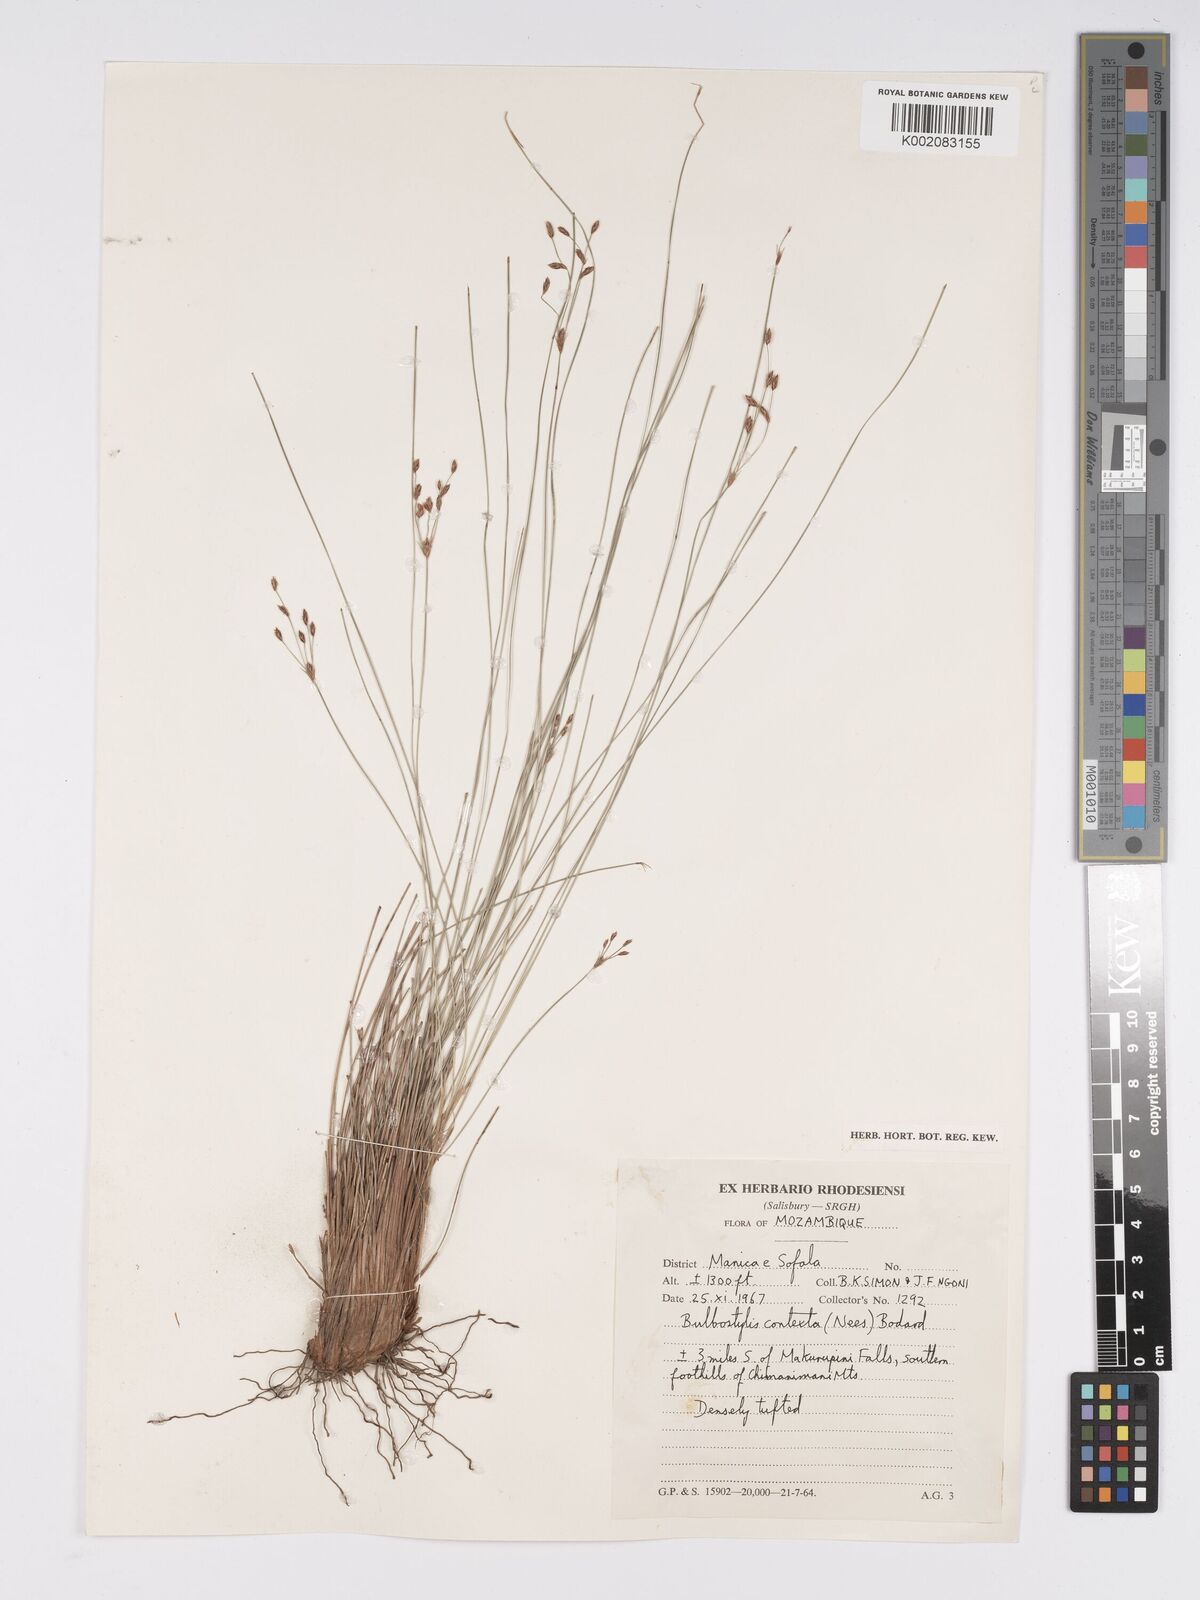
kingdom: Plantae
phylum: Tracheophyta
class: Liliopsida
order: Poales
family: Cyperaceae
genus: Bulbostylis
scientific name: Bulbostylis contexta
